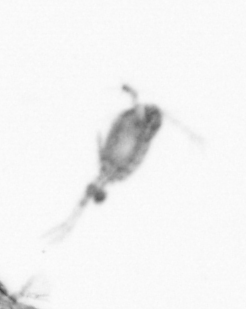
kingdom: Animalia
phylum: Arthropoda
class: Copepoda
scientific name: Copepoda
